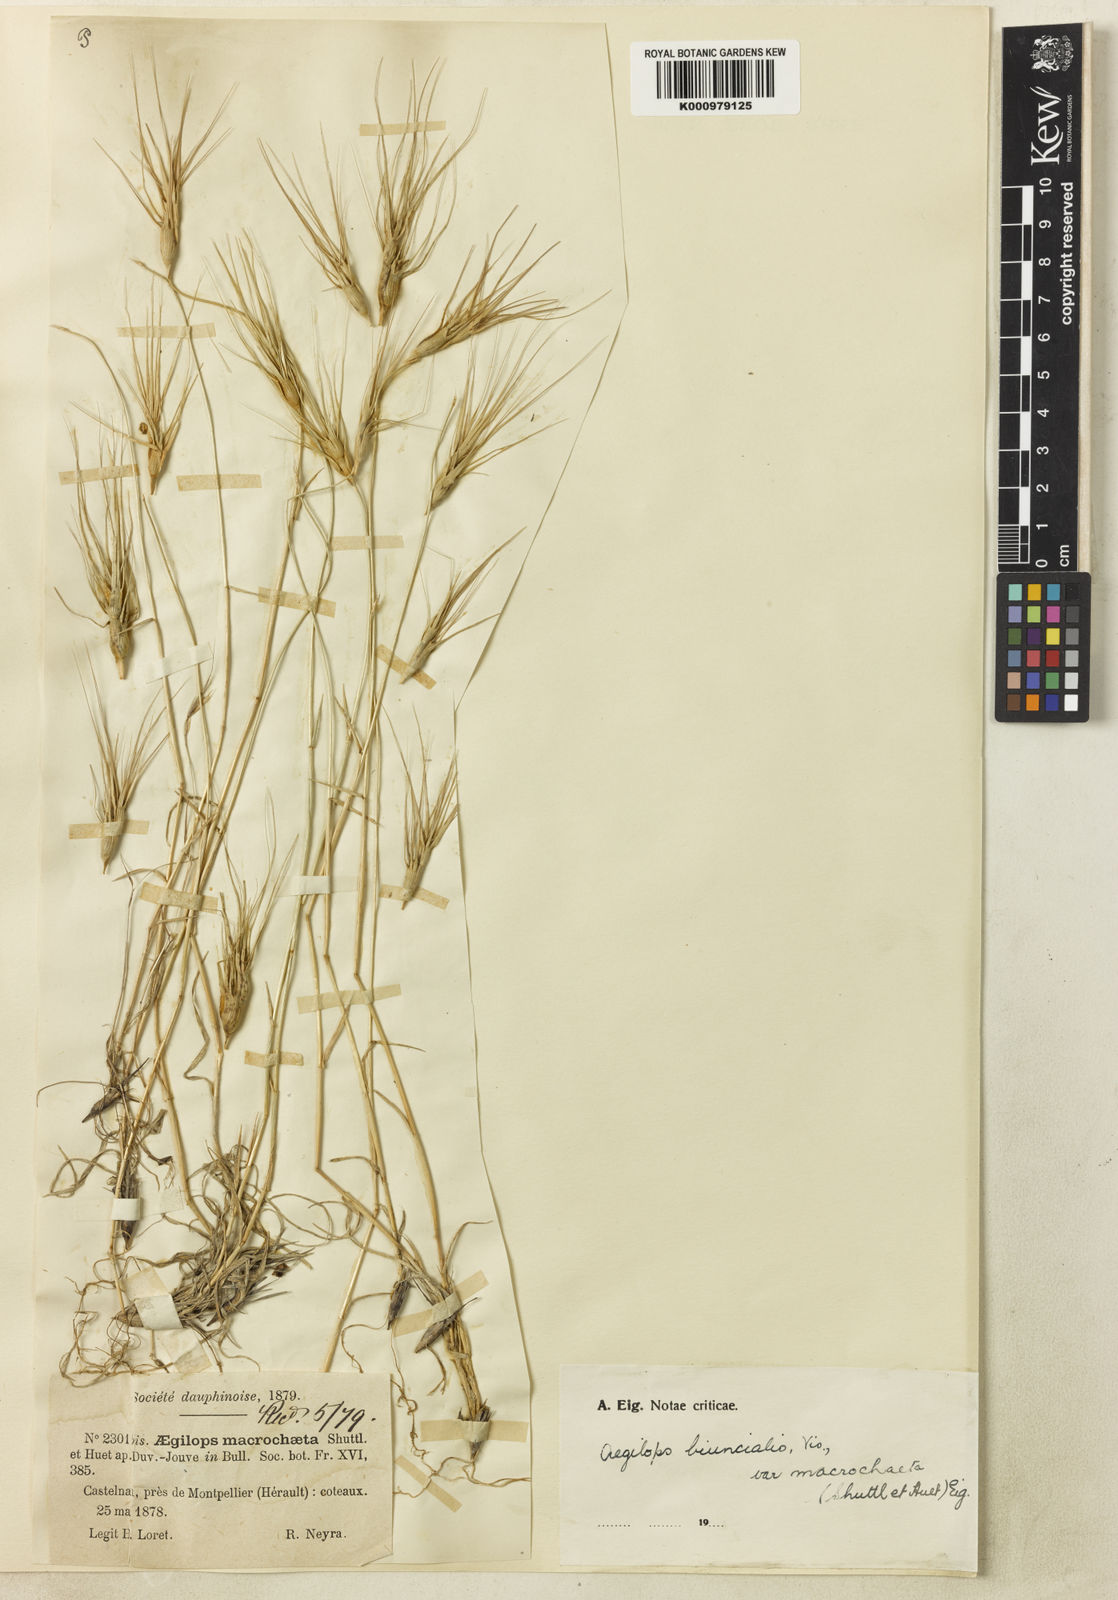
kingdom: Plantae
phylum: Tracheophyta
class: Liliopsida
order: Poales
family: Poaceae
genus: Aegilops
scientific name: Aegilops biuncialis
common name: Mediterranean aegilops
